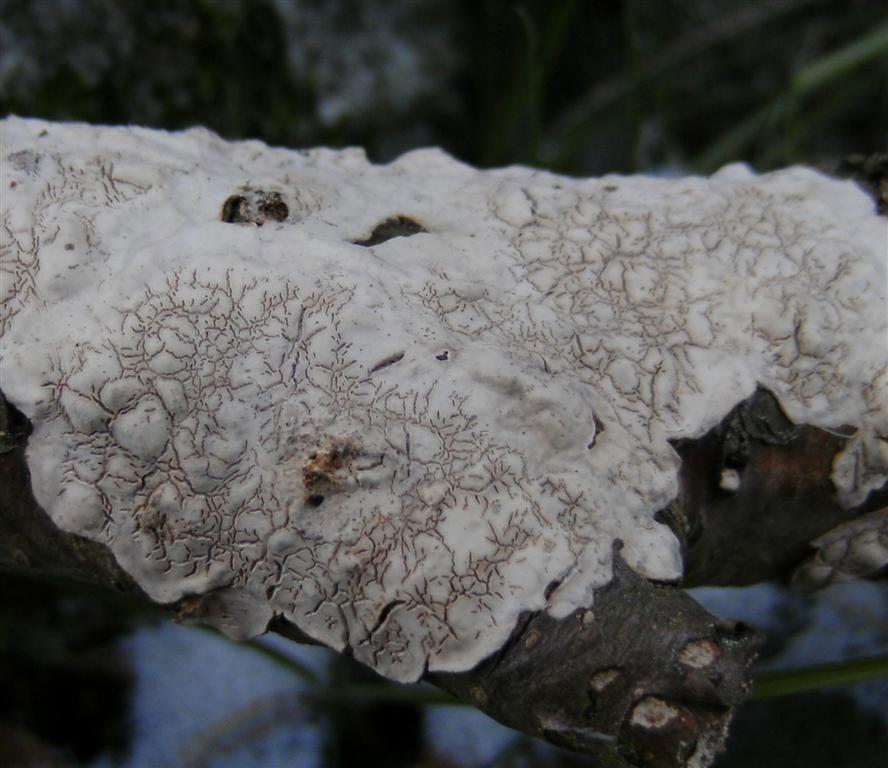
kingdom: Fungi
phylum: Basidiomycota
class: Agaricomycetes
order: Russulales
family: Stereaceae
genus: Stereum
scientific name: Stereum rugosum
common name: rynket lædersvamp
